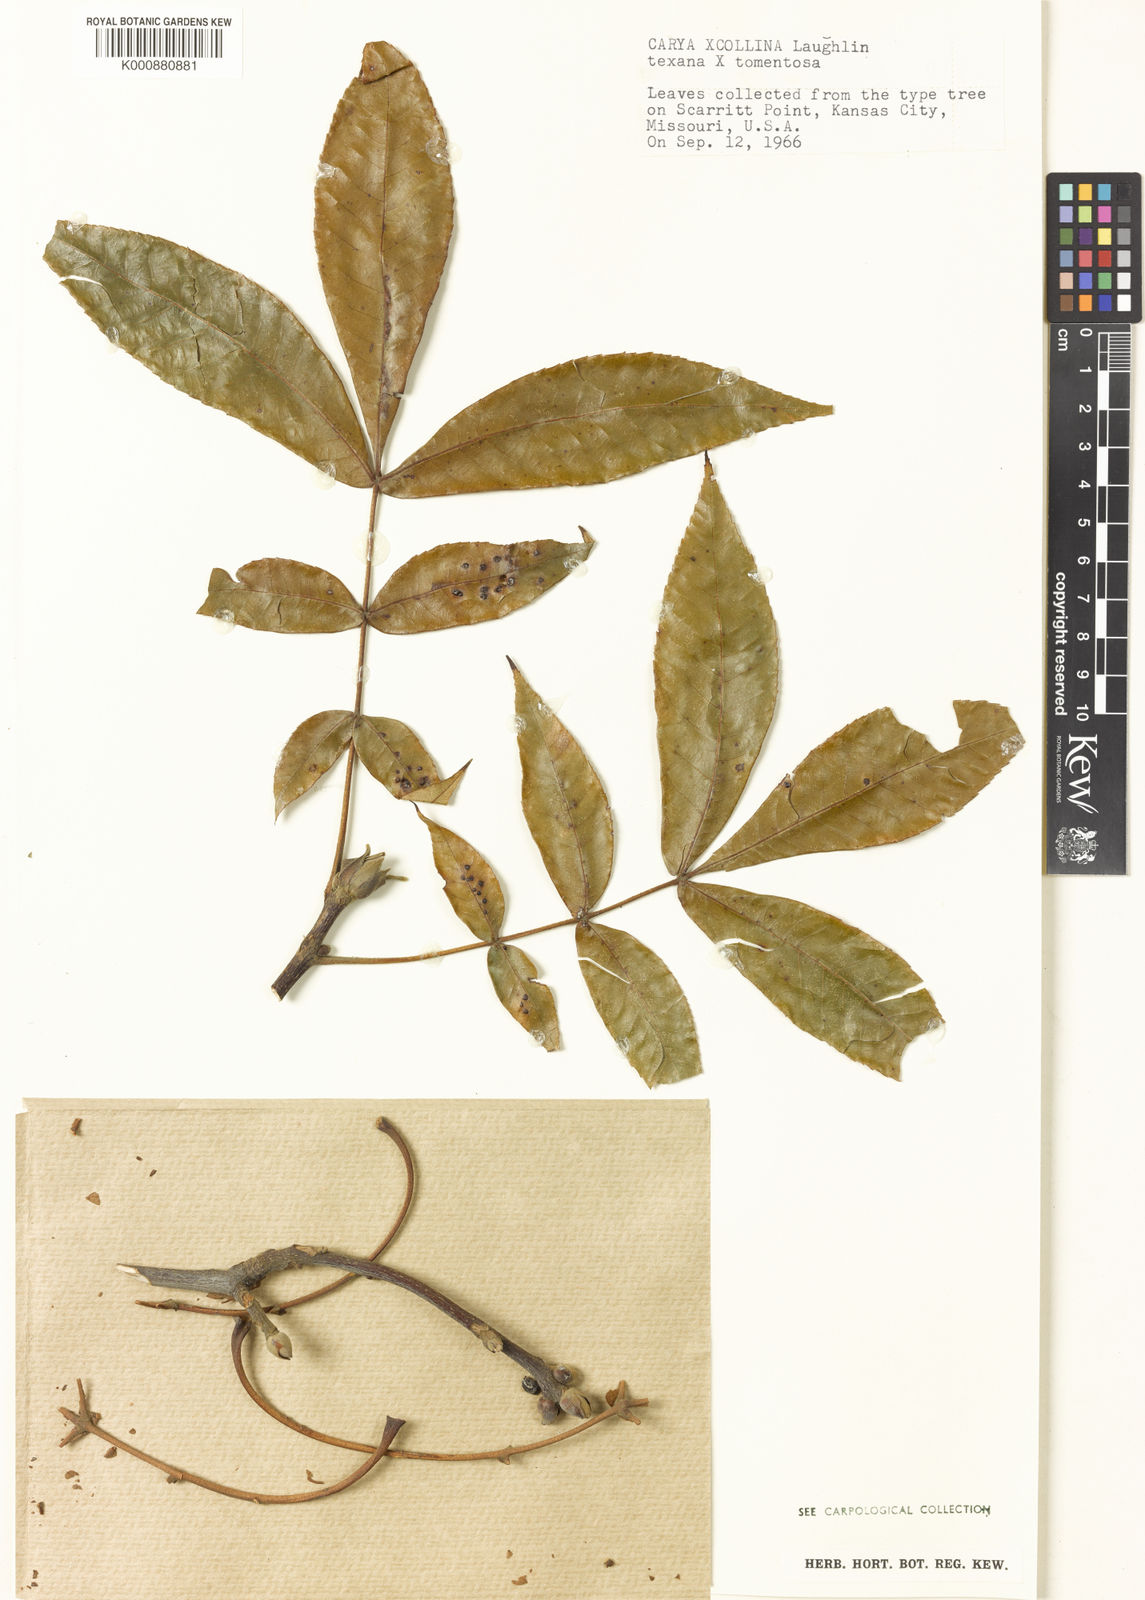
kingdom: Plantae
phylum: Tracheophyta
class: Magnoliopsida
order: Fagales
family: Juglandaceae
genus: Carya
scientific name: Carya collina
